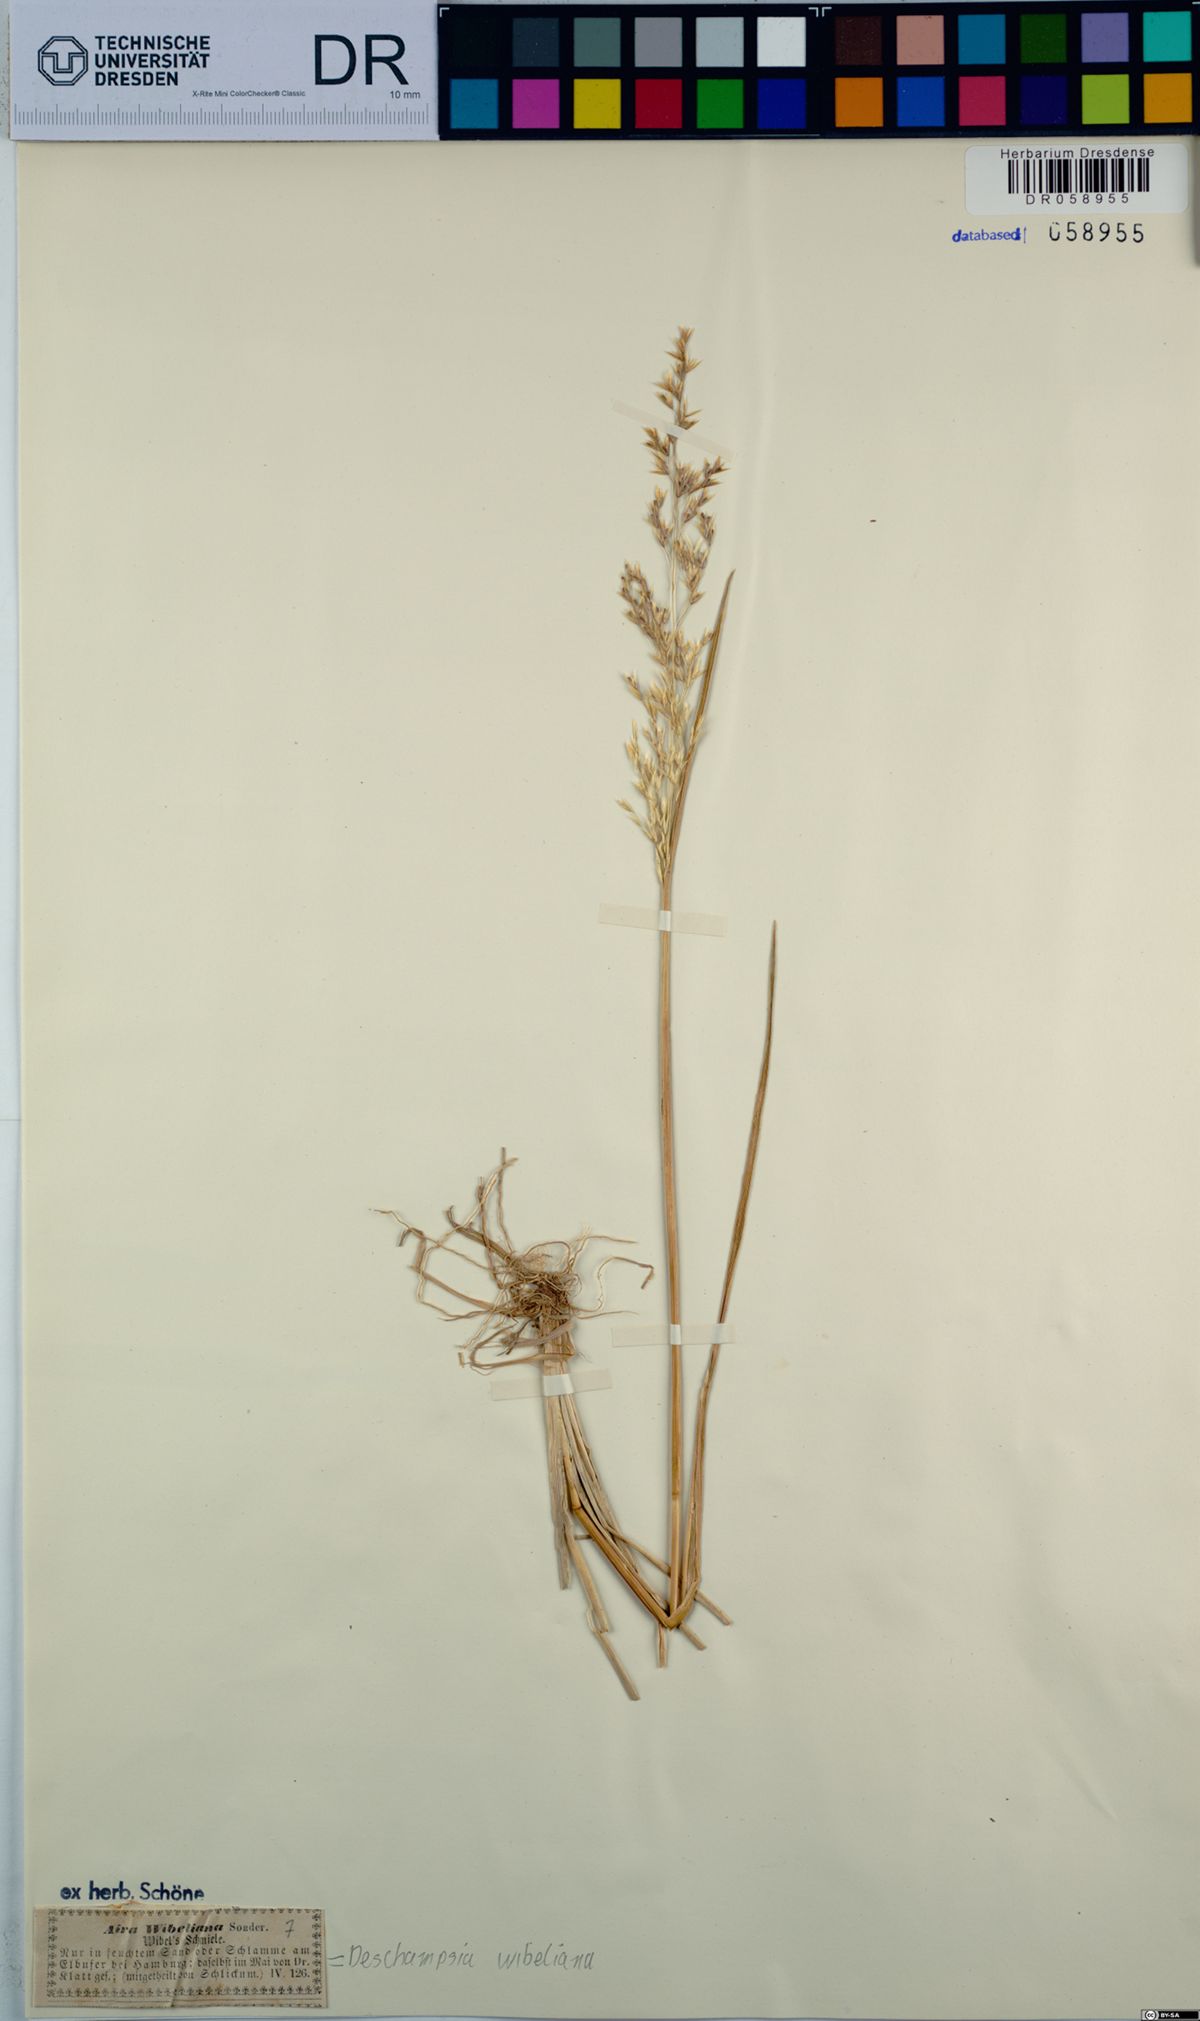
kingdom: Plantae
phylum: Tracheophyta
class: Liliopsida
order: Poales
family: Poaceae
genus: Deschampsia
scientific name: Deschampsia cespitosa
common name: Tufted hair-grass
